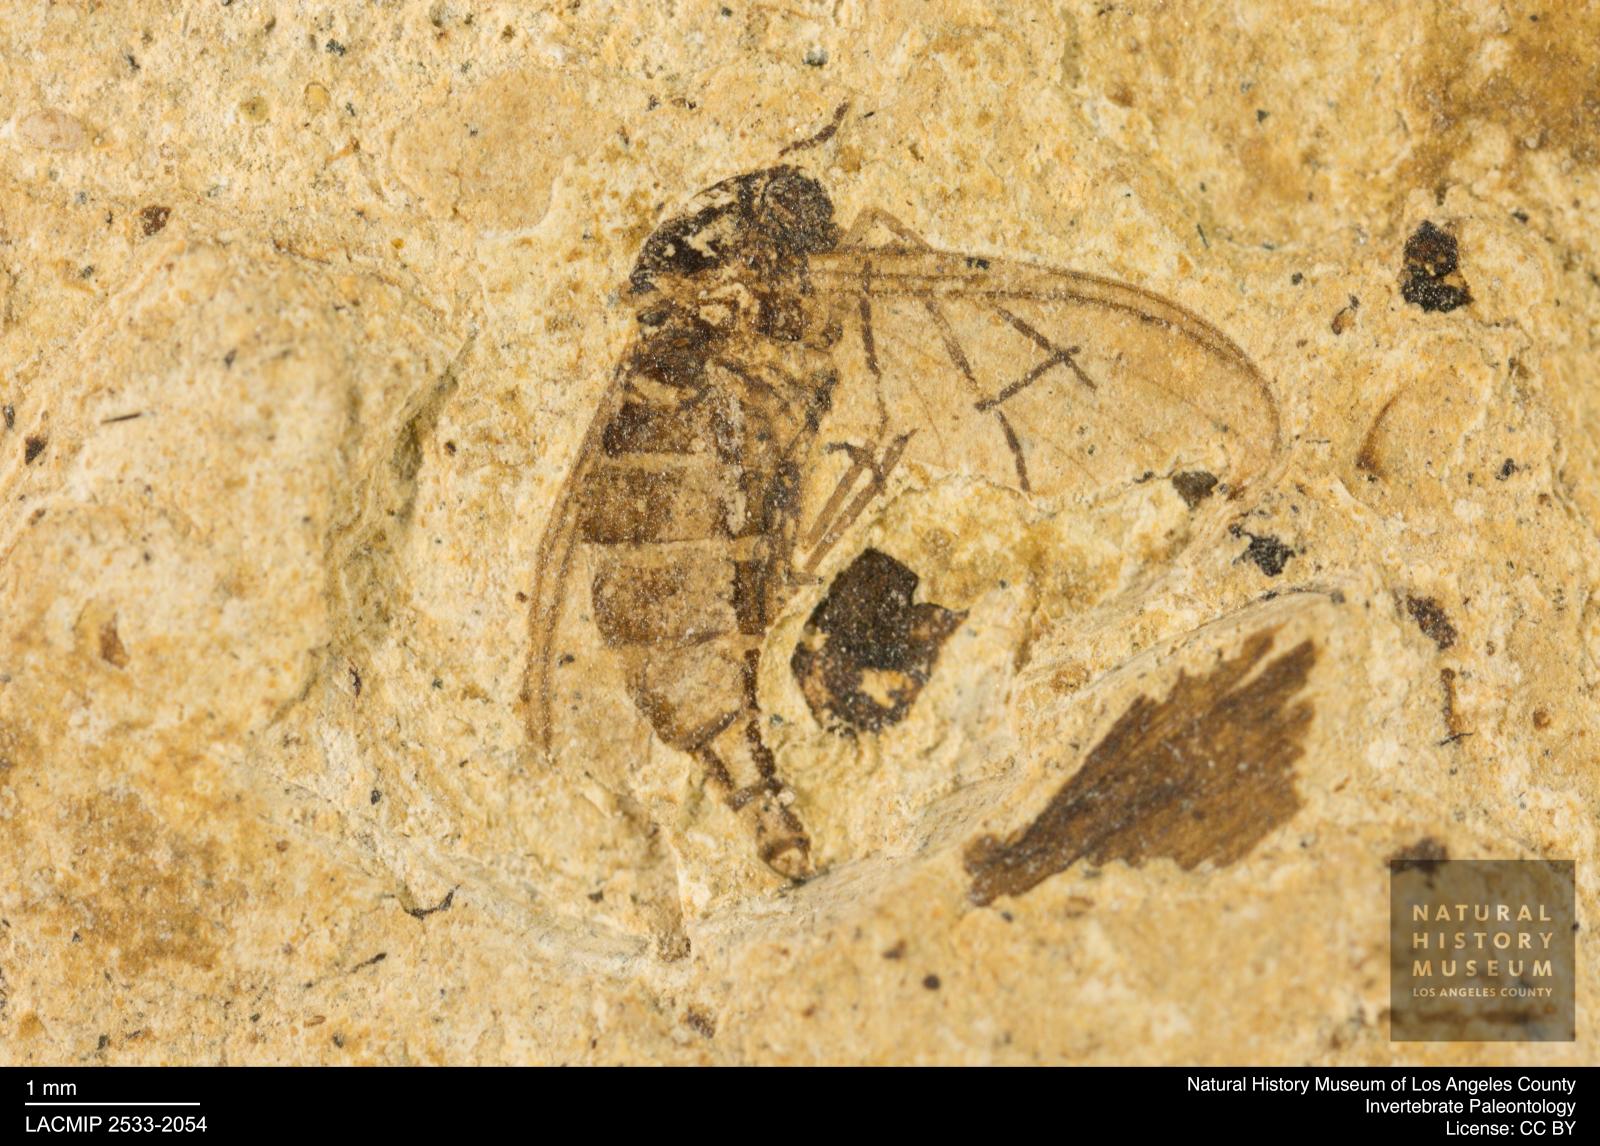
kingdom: Animalia
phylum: Arthropoda
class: Insecta
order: Diptera
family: Sciaridae
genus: Sciara
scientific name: Sciara atavina
